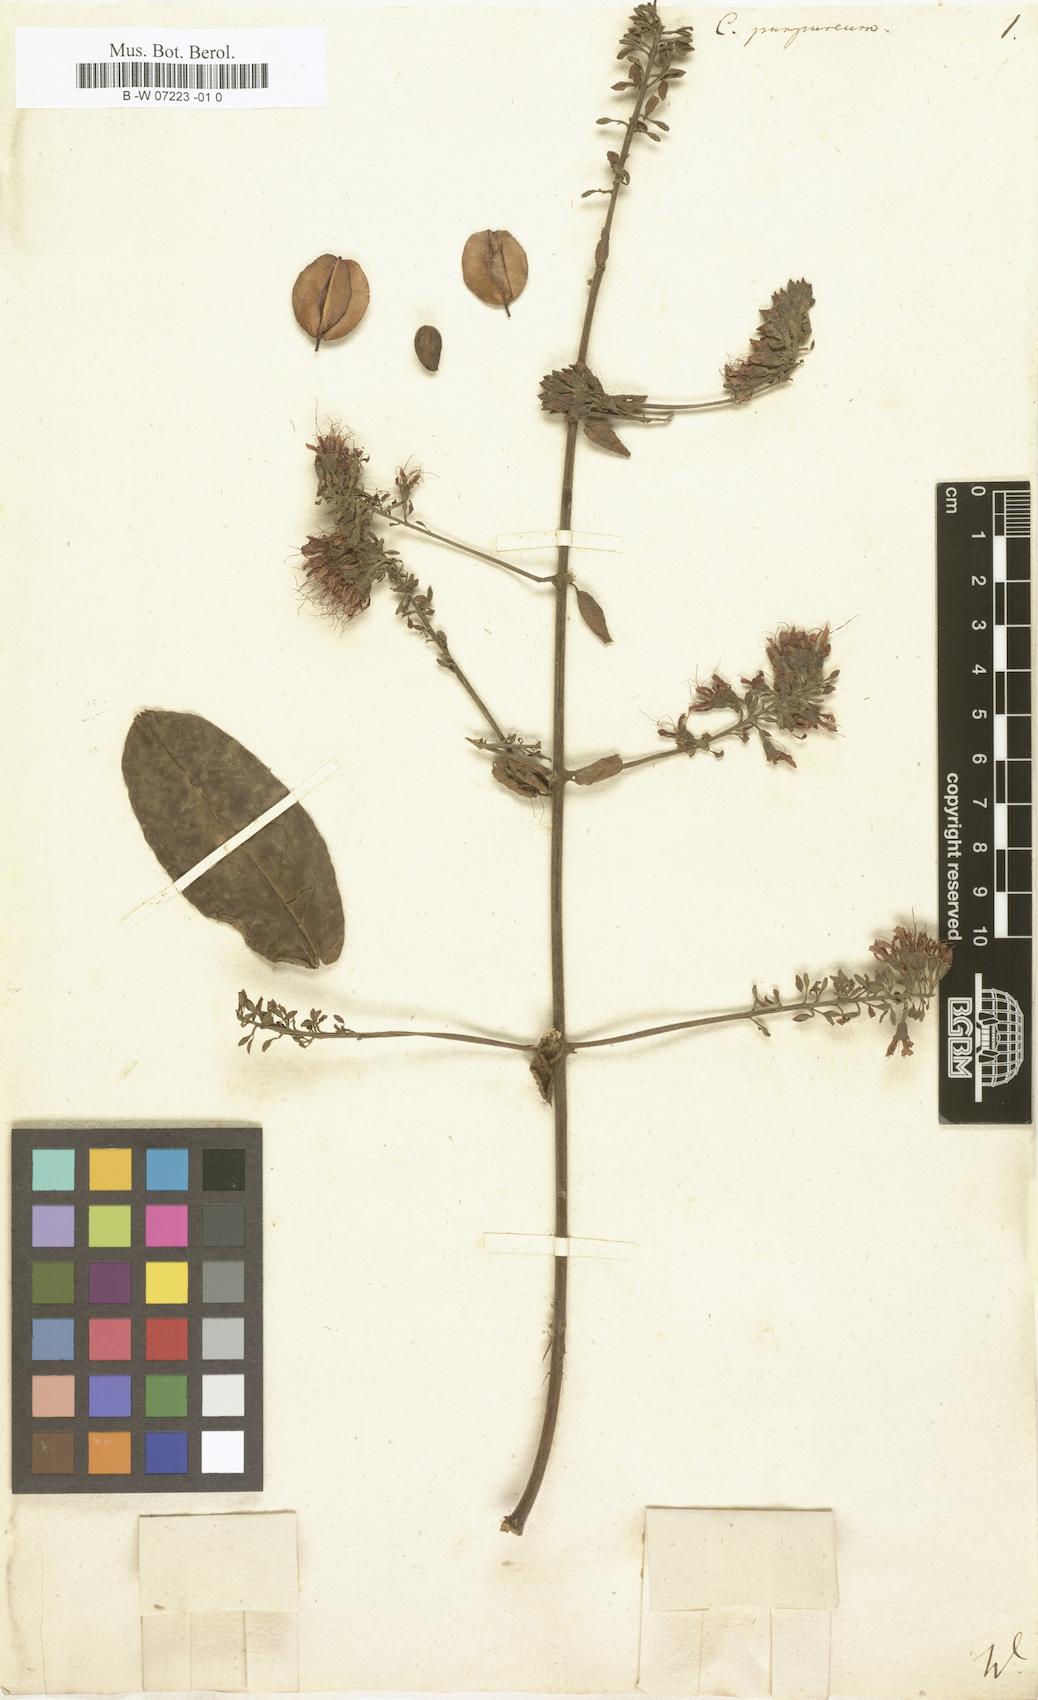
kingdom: Plantae
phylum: Tracheophyta
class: Magnoliopsida
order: Myrtales
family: Combretaceae
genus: Combretum
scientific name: Combretum coccineum
